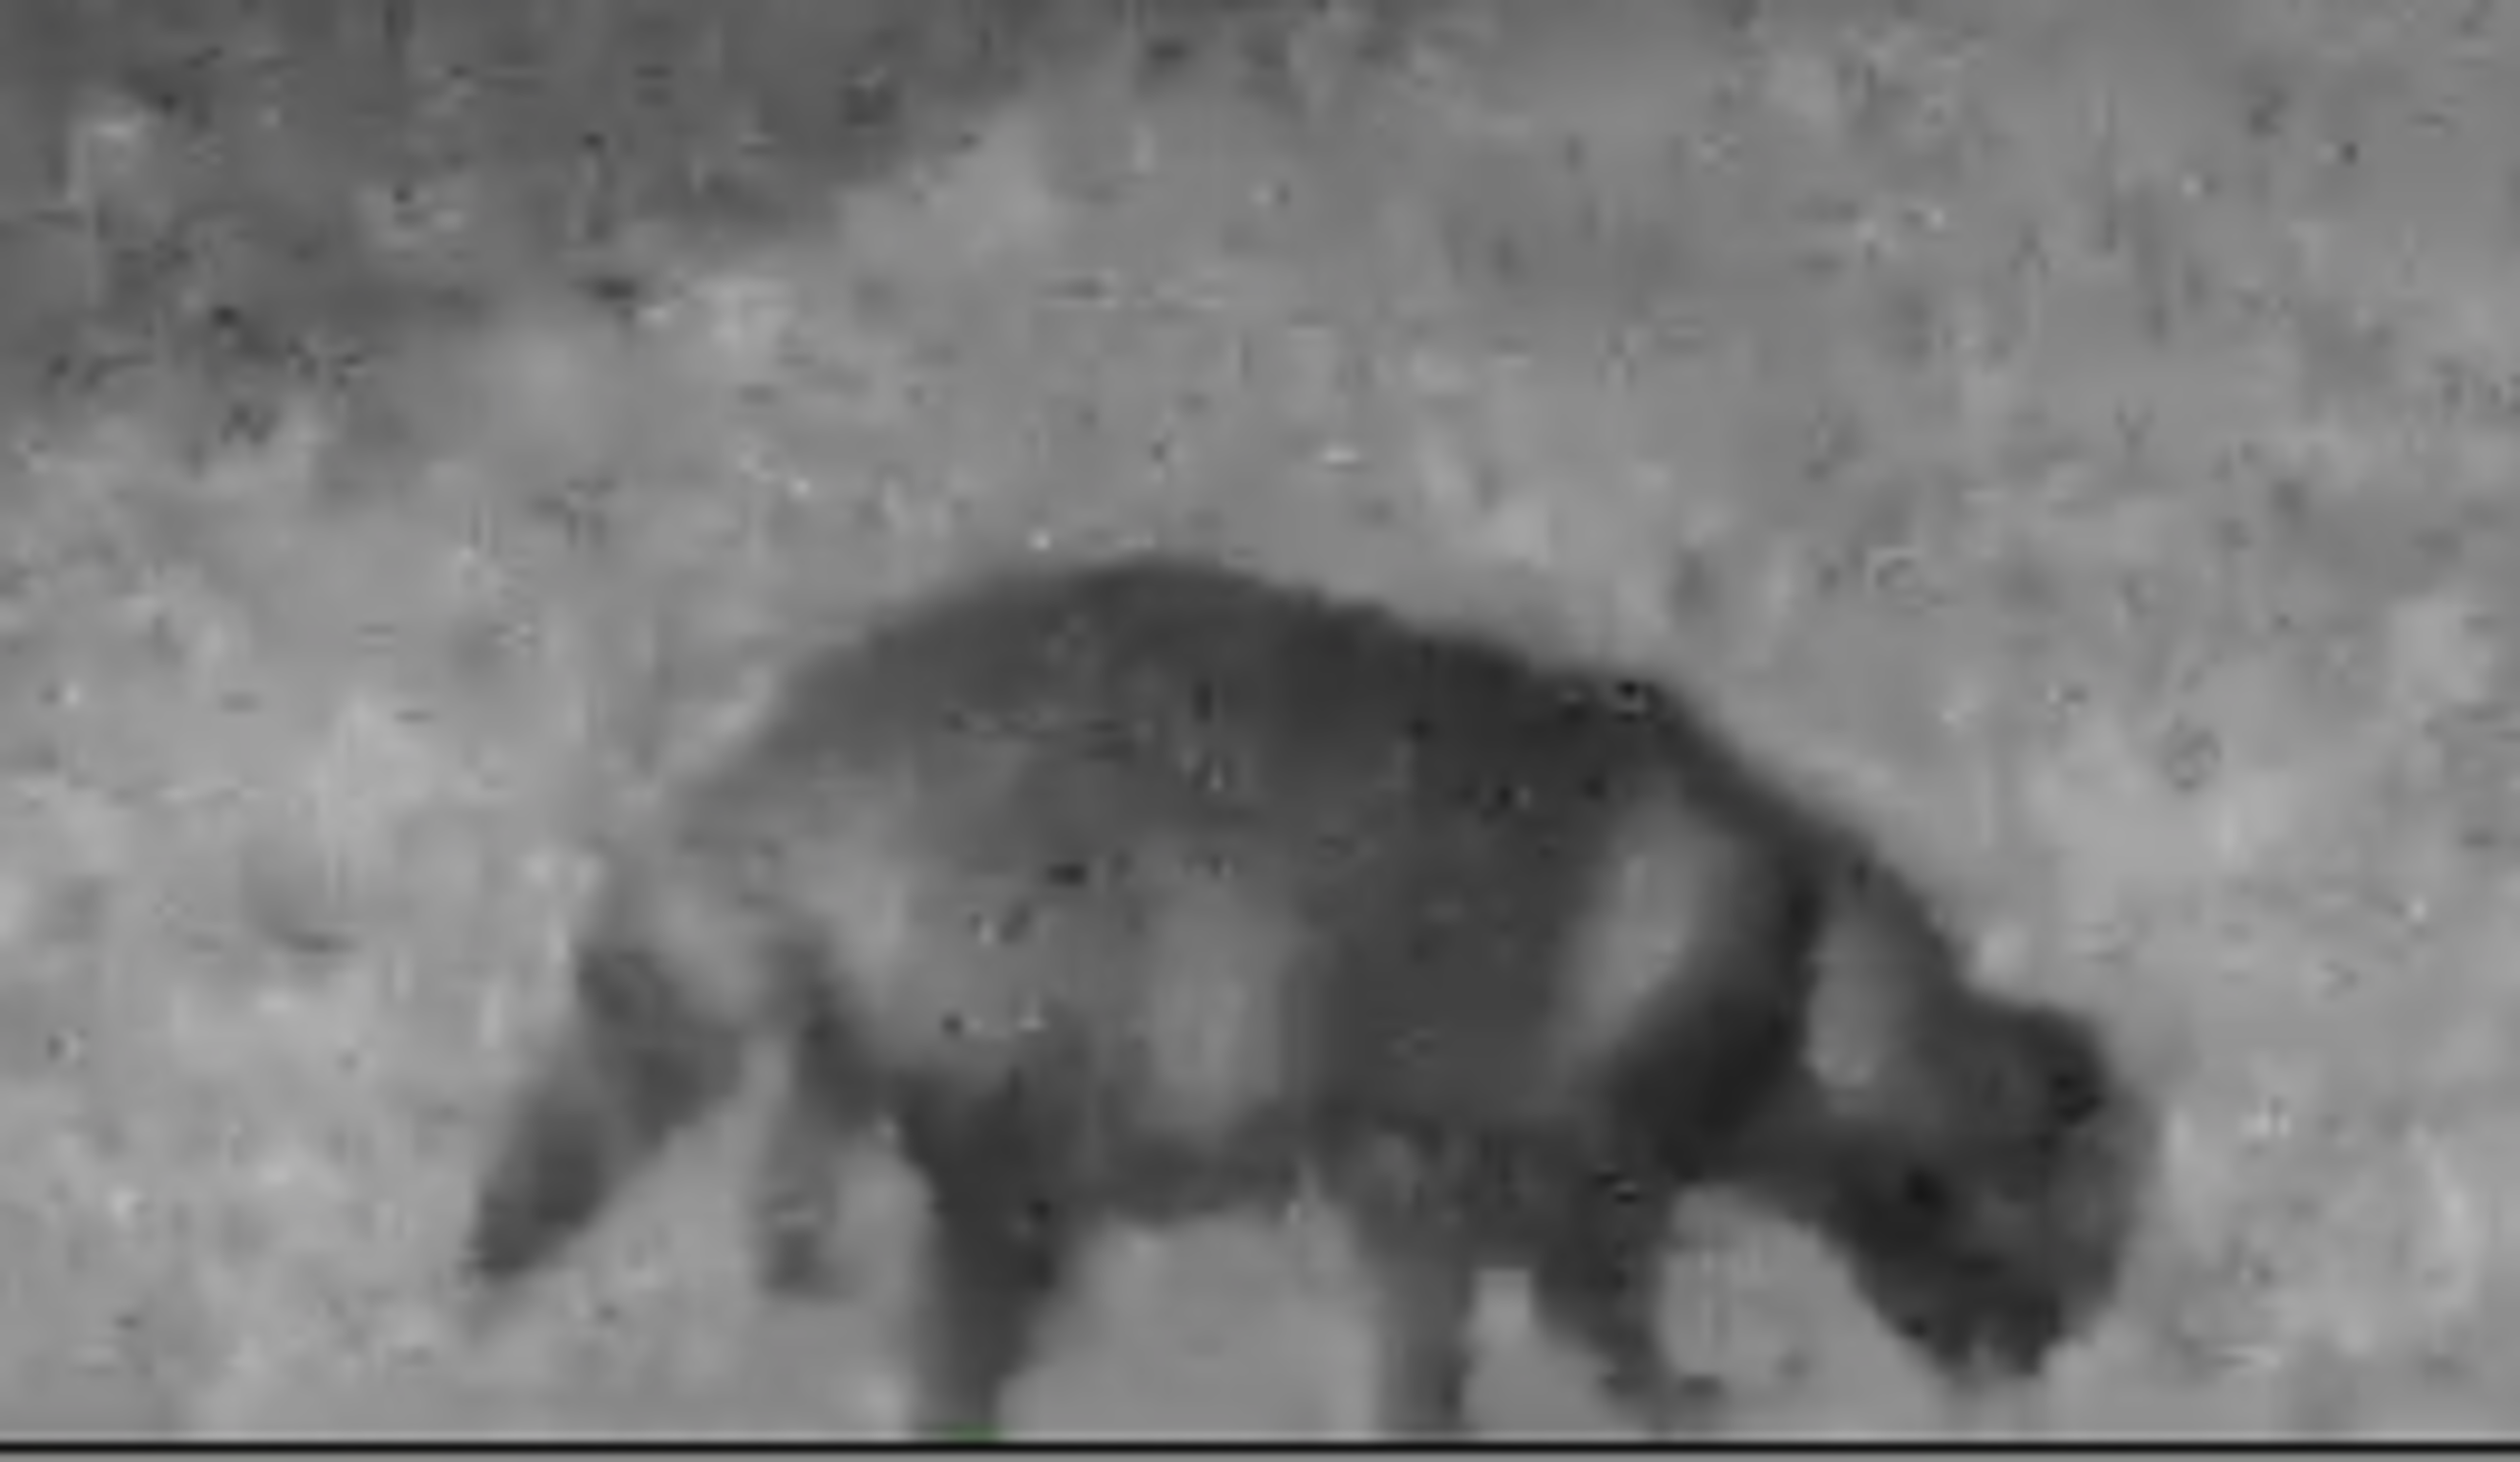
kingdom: Animalia
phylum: Chordata
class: Mammalia
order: Carnivora
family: Canidae
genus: Nyctereutes
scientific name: Nyctereutes procyonoides
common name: Mårhund
